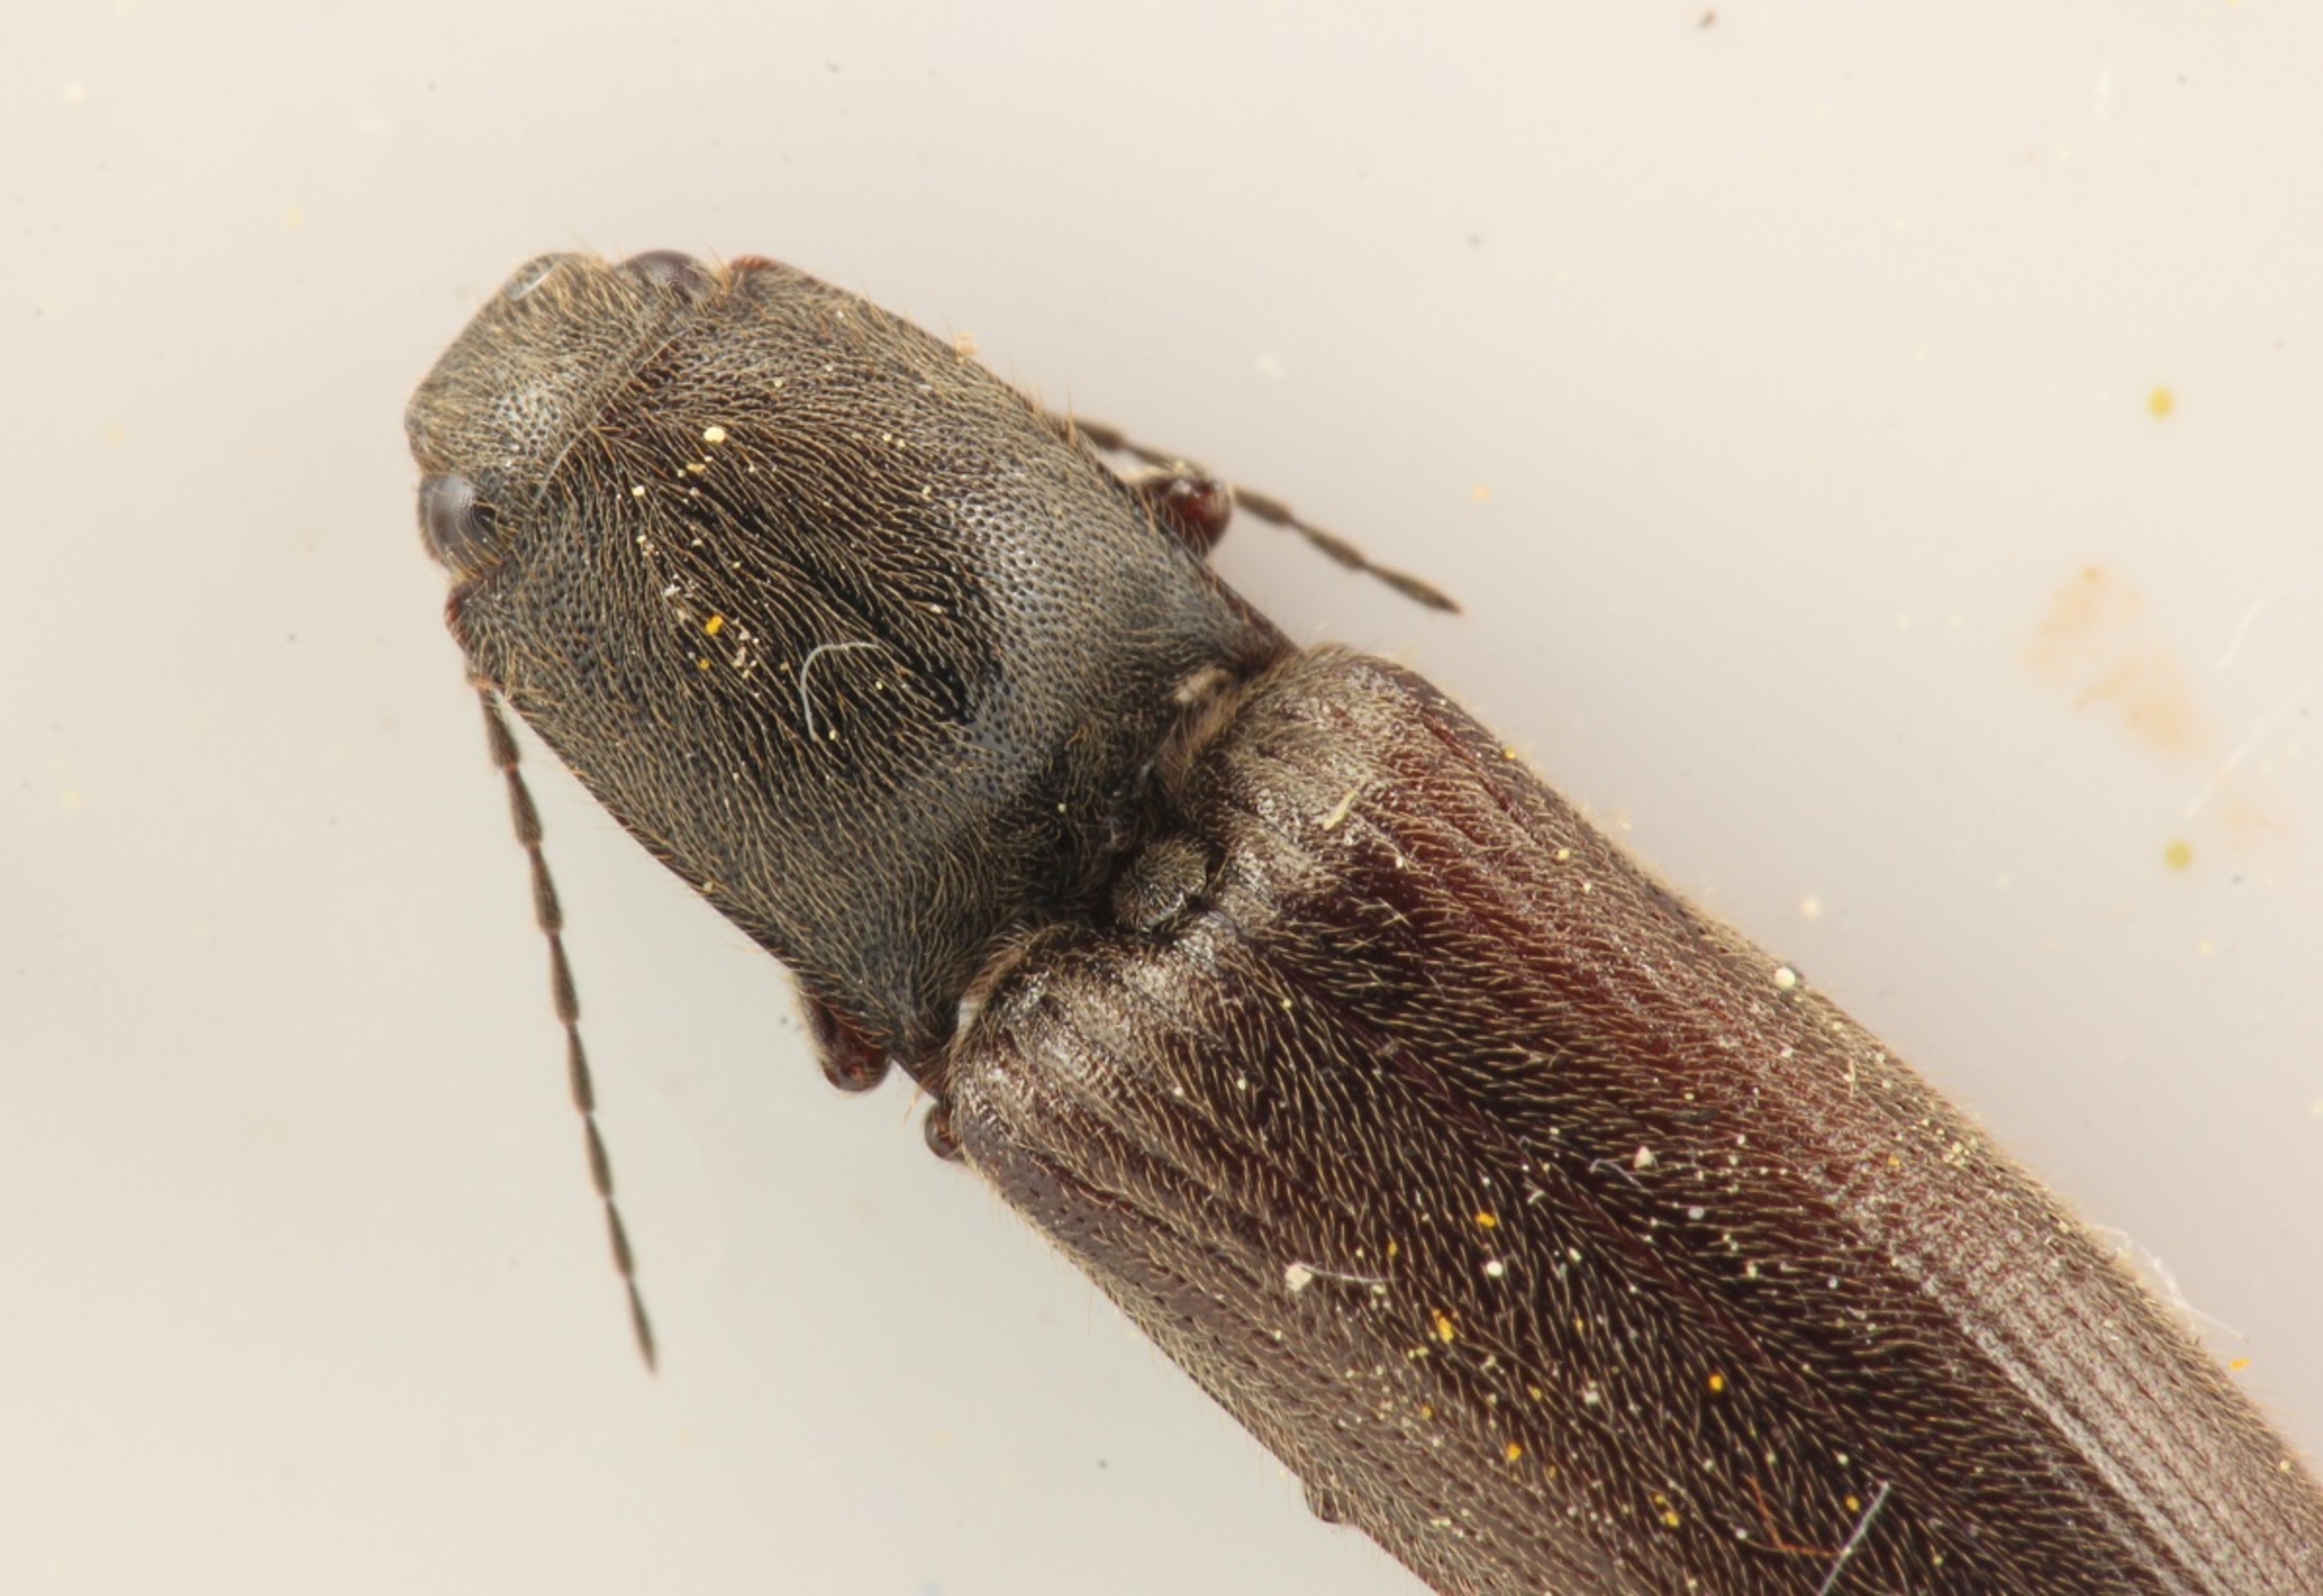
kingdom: Animalia
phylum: Arthropoda
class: Insecta
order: Coleoptera
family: Elateridae
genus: Athous
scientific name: Athous haemorrhoidalis
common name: Rødhalet busksmælder
